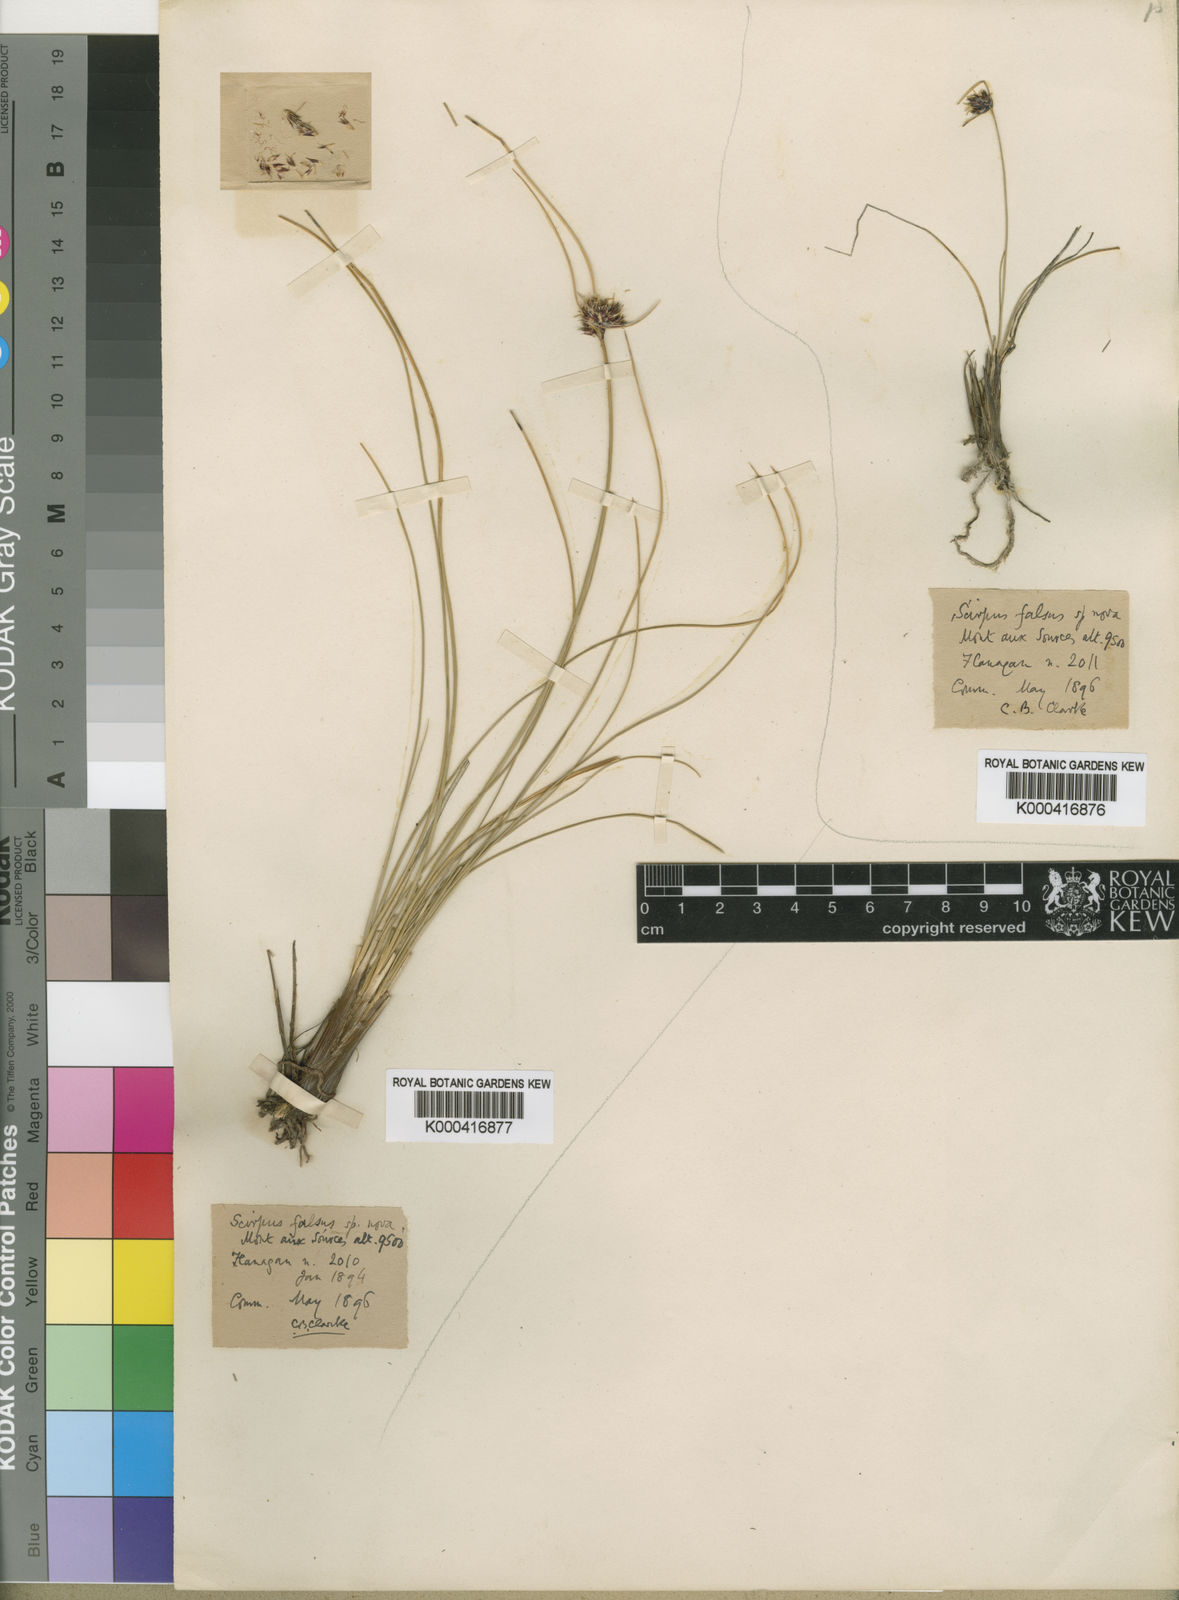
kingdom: Plantae
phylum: Tracheophyta
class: Liliopsida
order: Poales
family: Cyperaceae
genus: Schoenoplectus
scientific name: Schoenoplectus
